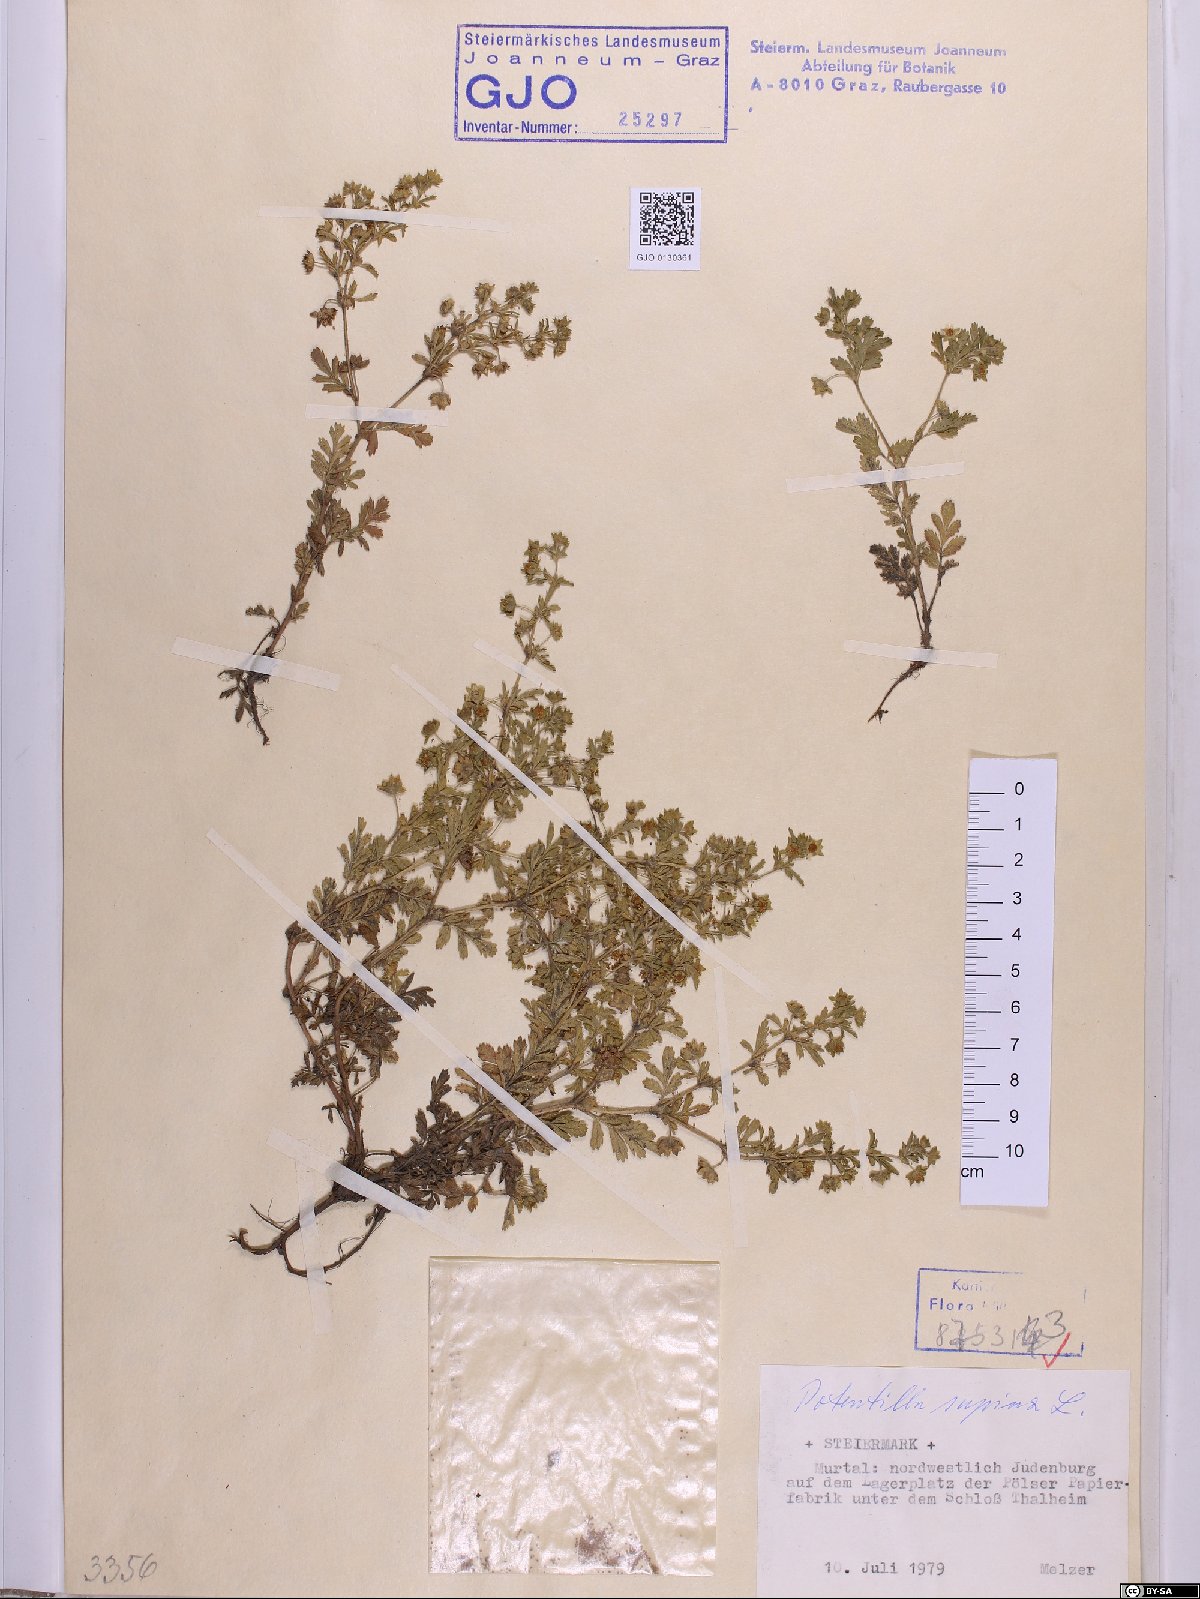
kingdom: Plantae
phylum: Tracheophyta
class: Magnoliopsida
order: Rosales
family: Rosaceae
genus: Potentilla
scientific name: Potentilla supina
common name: Prostrate cinquefoil
